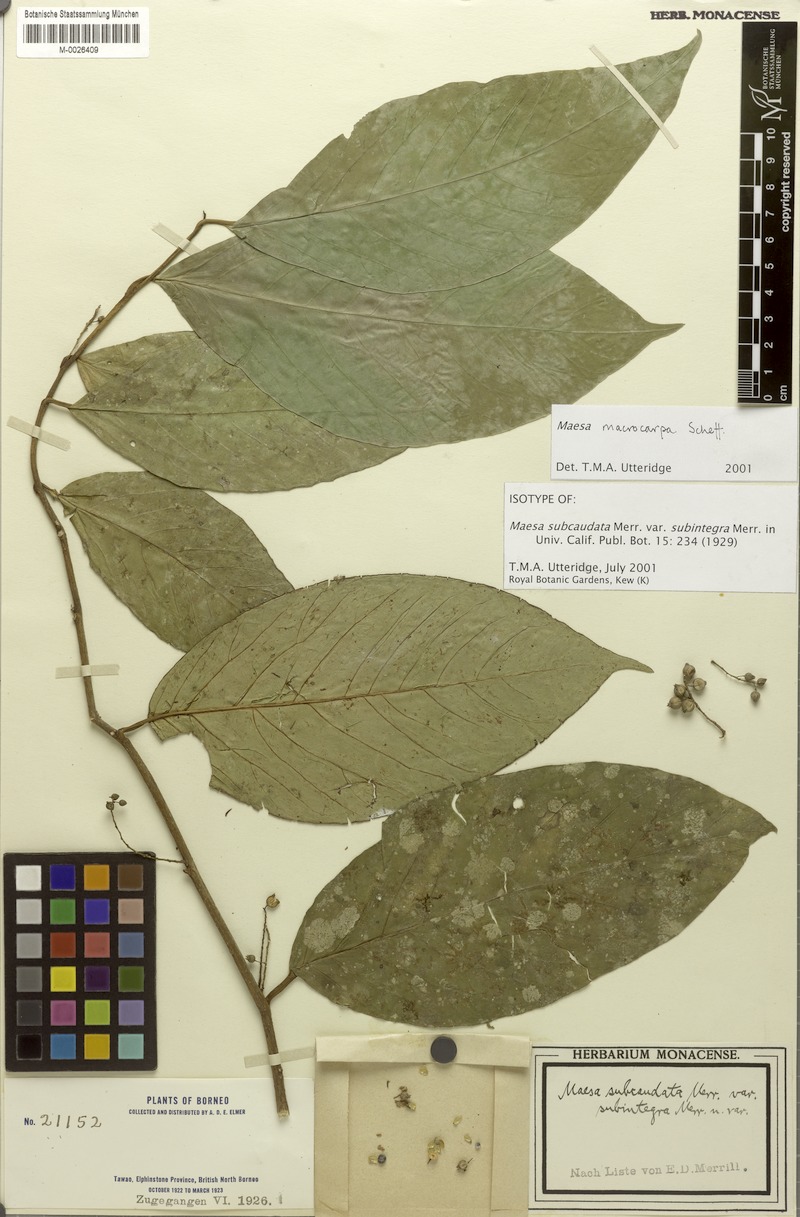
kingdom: Plantae
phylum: Tracheophyta
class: Magnoliopsida
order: Ericales
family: Primulaceae
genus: Maesa
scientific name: Maesa macrocarpa
